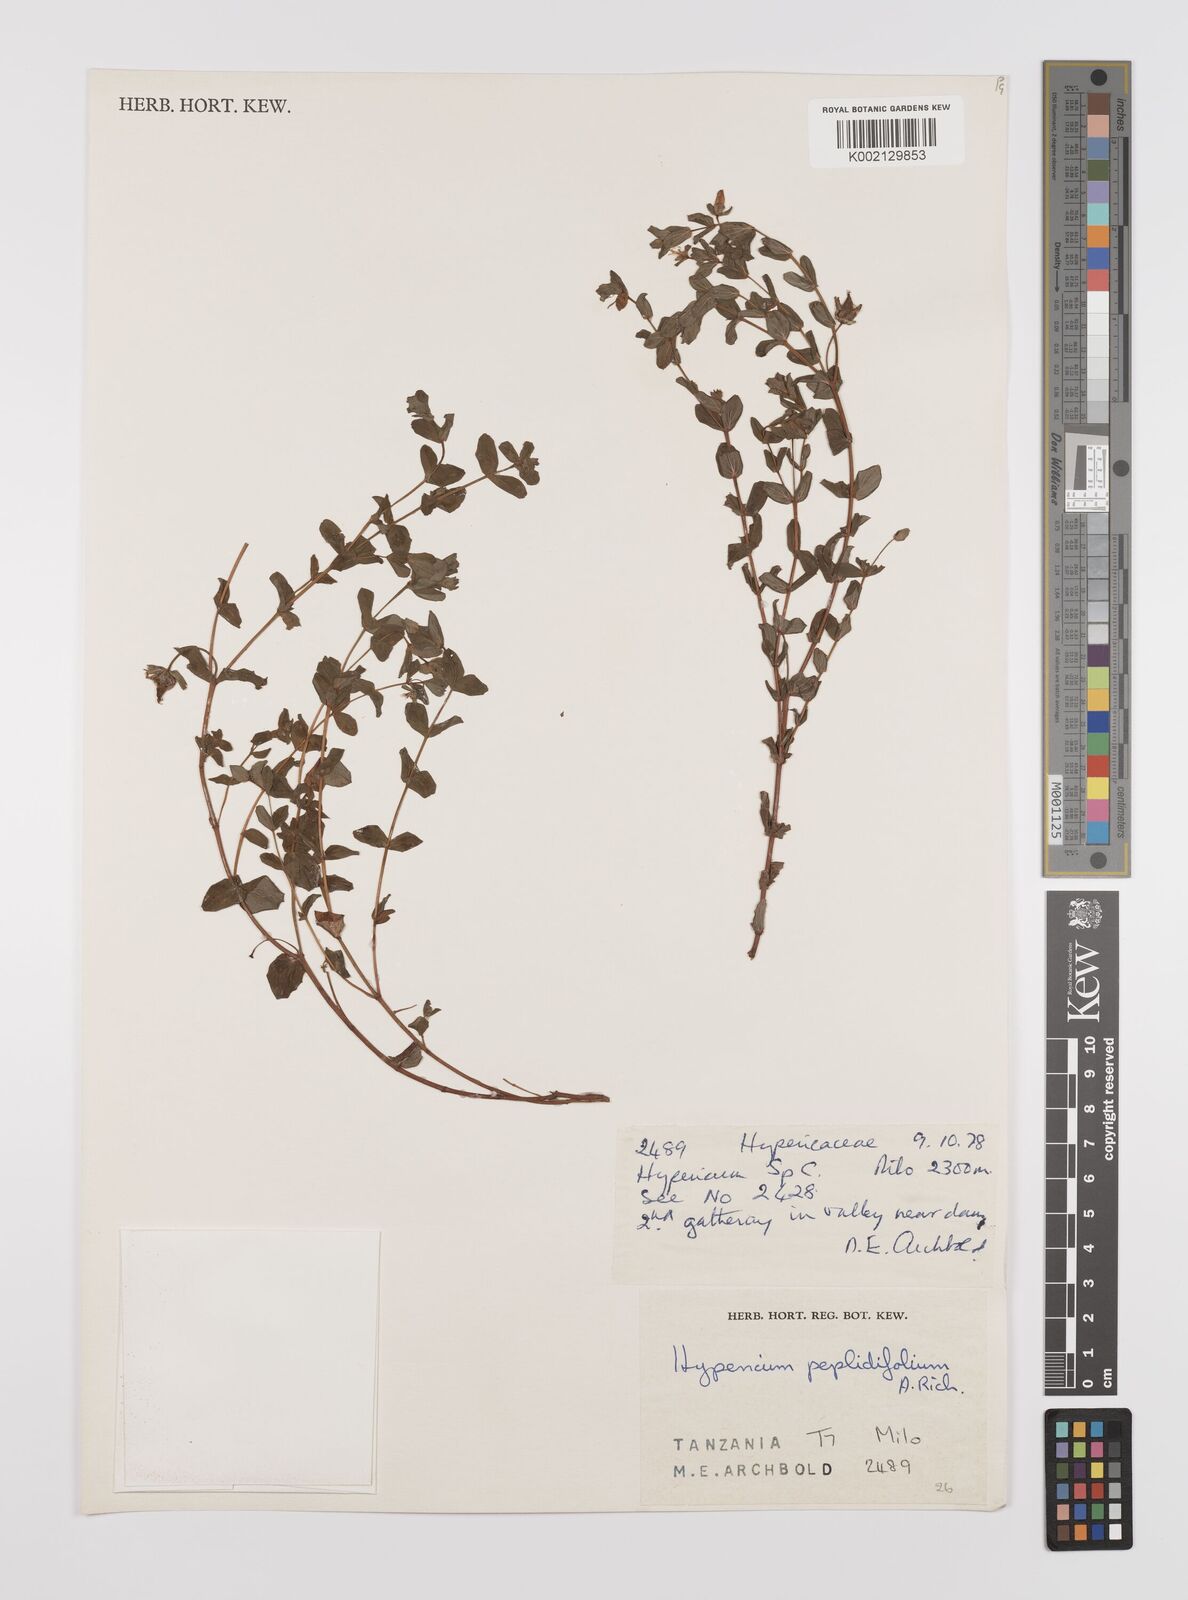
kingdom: Plantae
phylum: Tracheophyta
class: Magnoliopsida
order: Malpighiales
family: Hypericaceae
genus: Hypericum
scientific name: Hypericum peplidifolium
